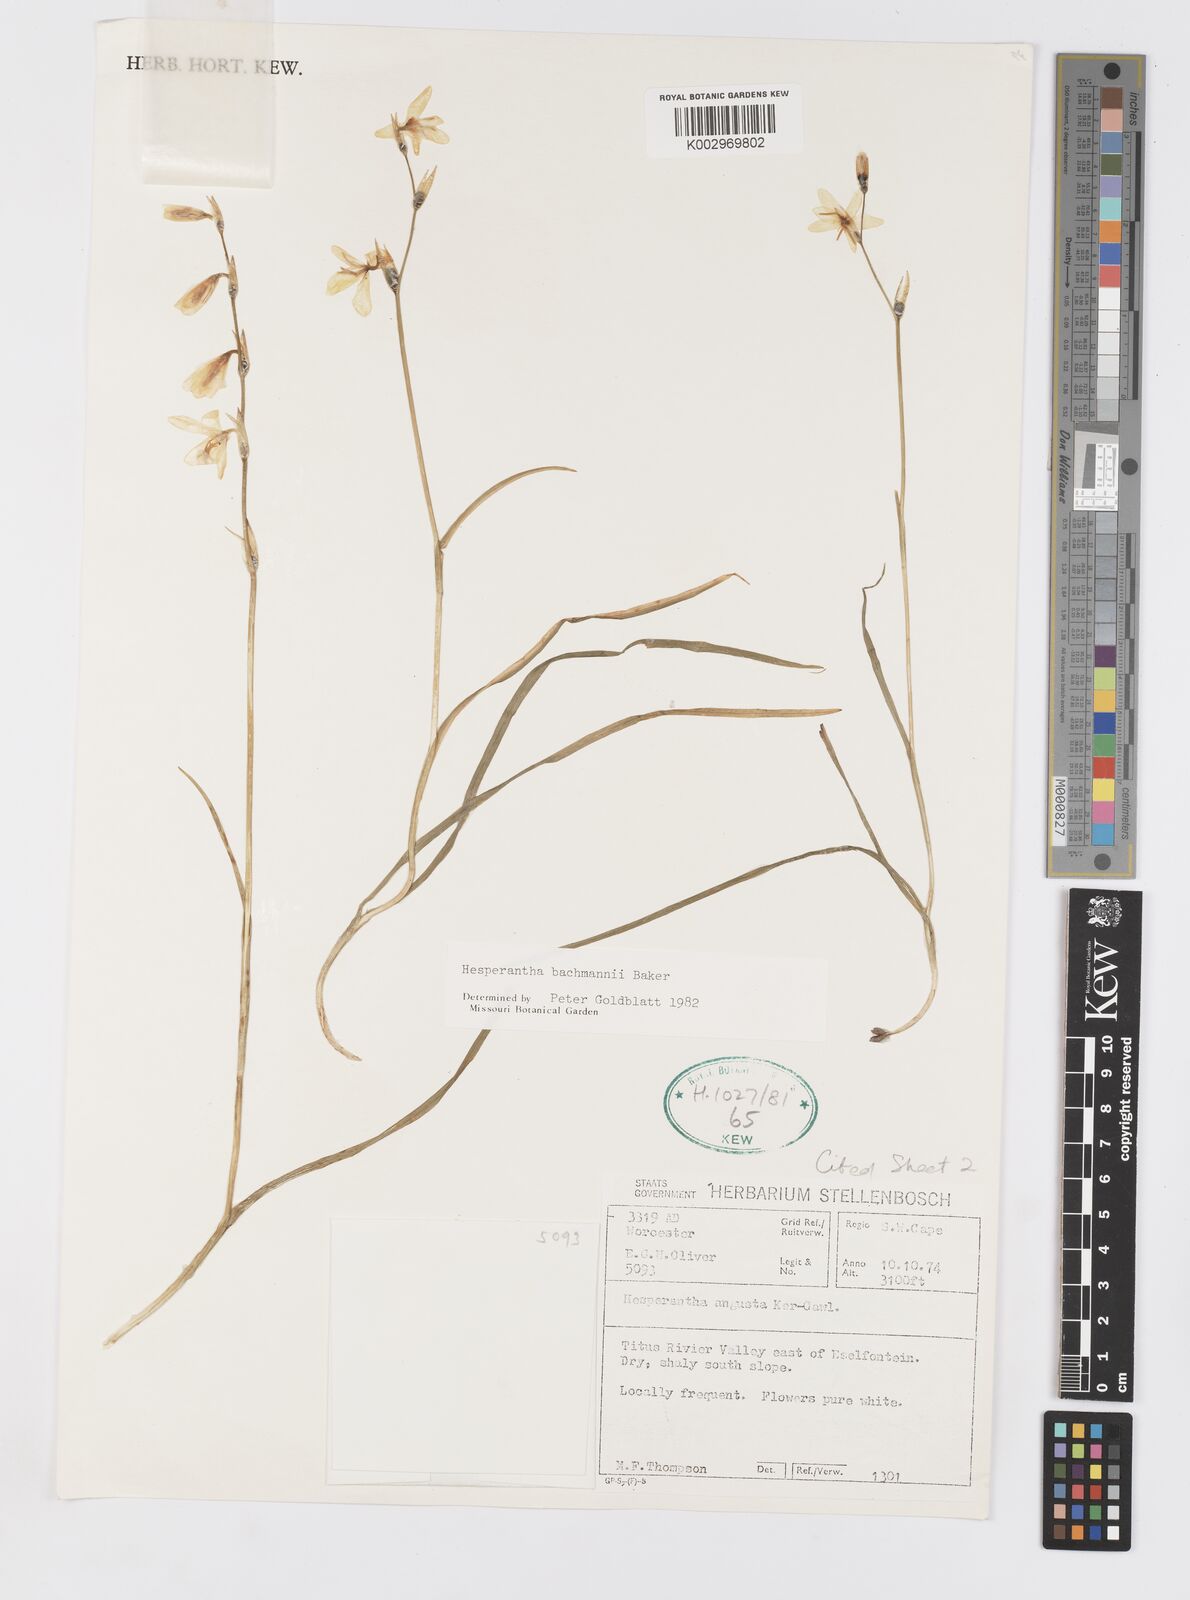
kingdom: Plantae
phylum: Tracheophyta
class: Liliopsida
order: Asparagales
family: Iridaceae
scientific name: Iridaceae
